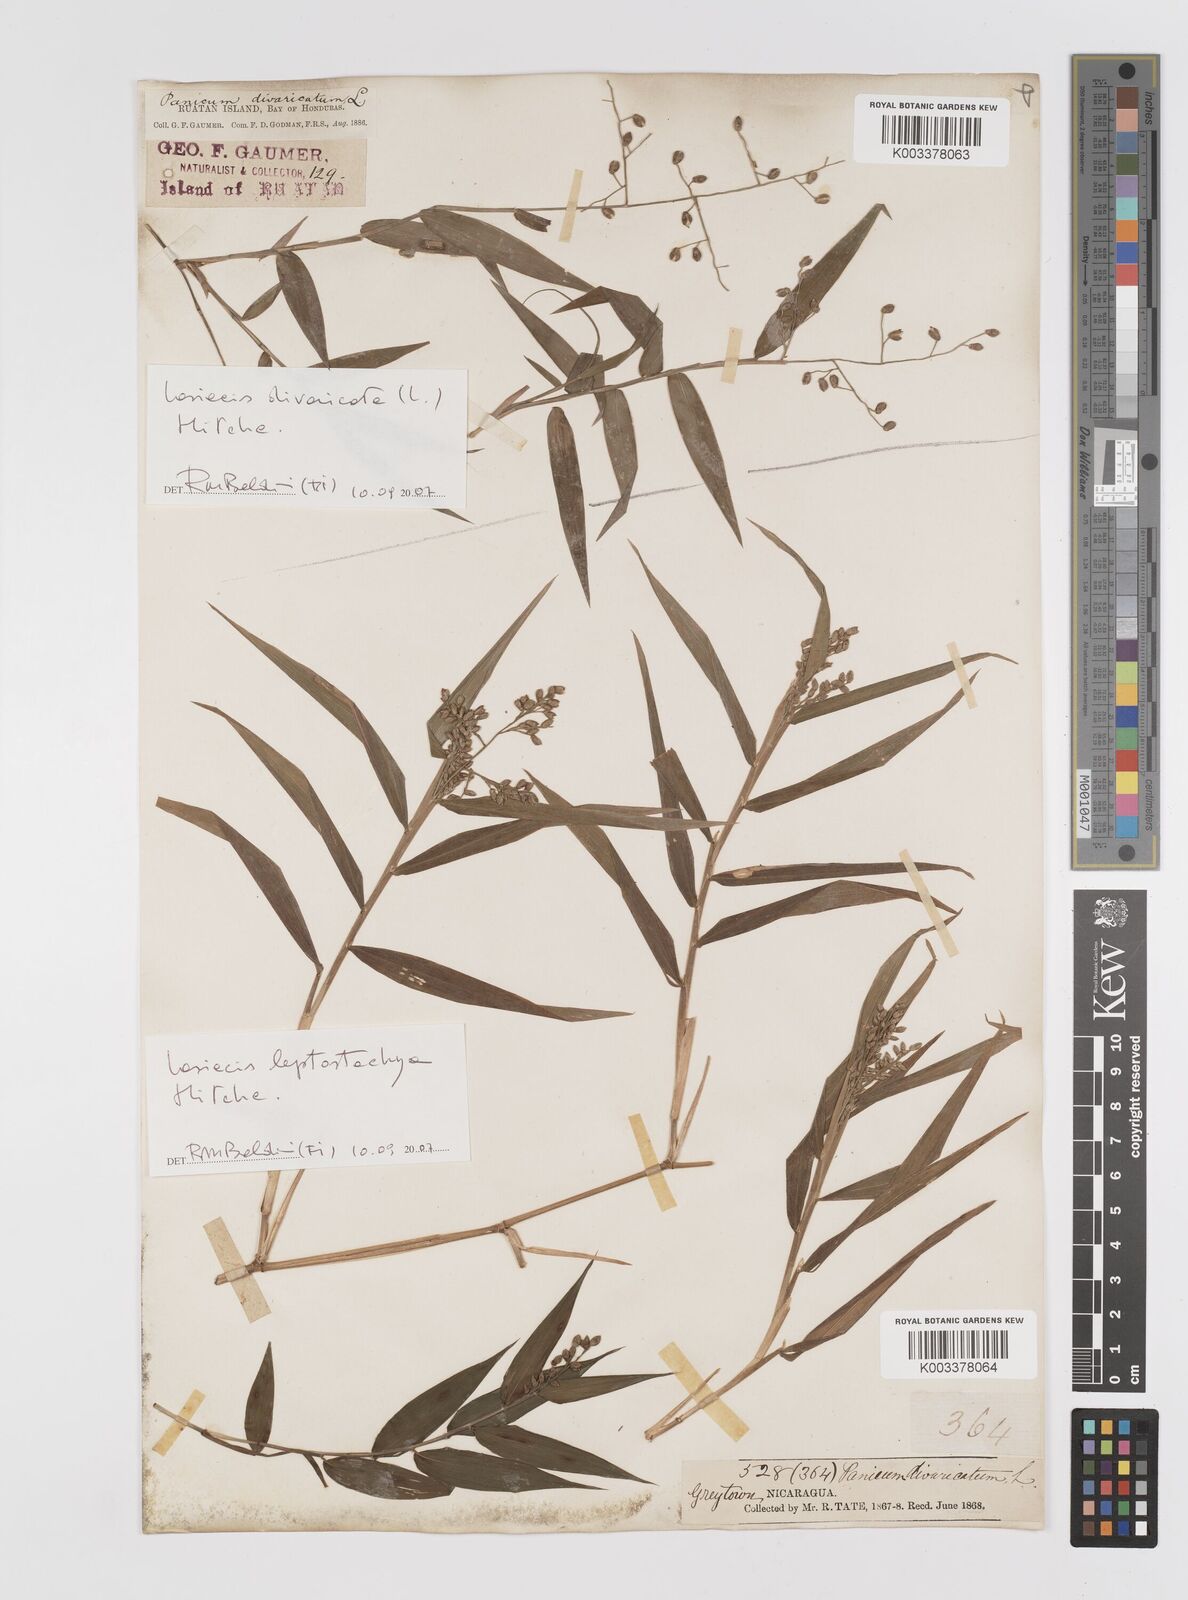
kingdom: Plantae
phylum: Tracheophyta
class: Liliopsida
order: Poales
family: Poaceae
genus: Lasiacis
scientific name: Lasiacis divaricata
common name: Smallcane
